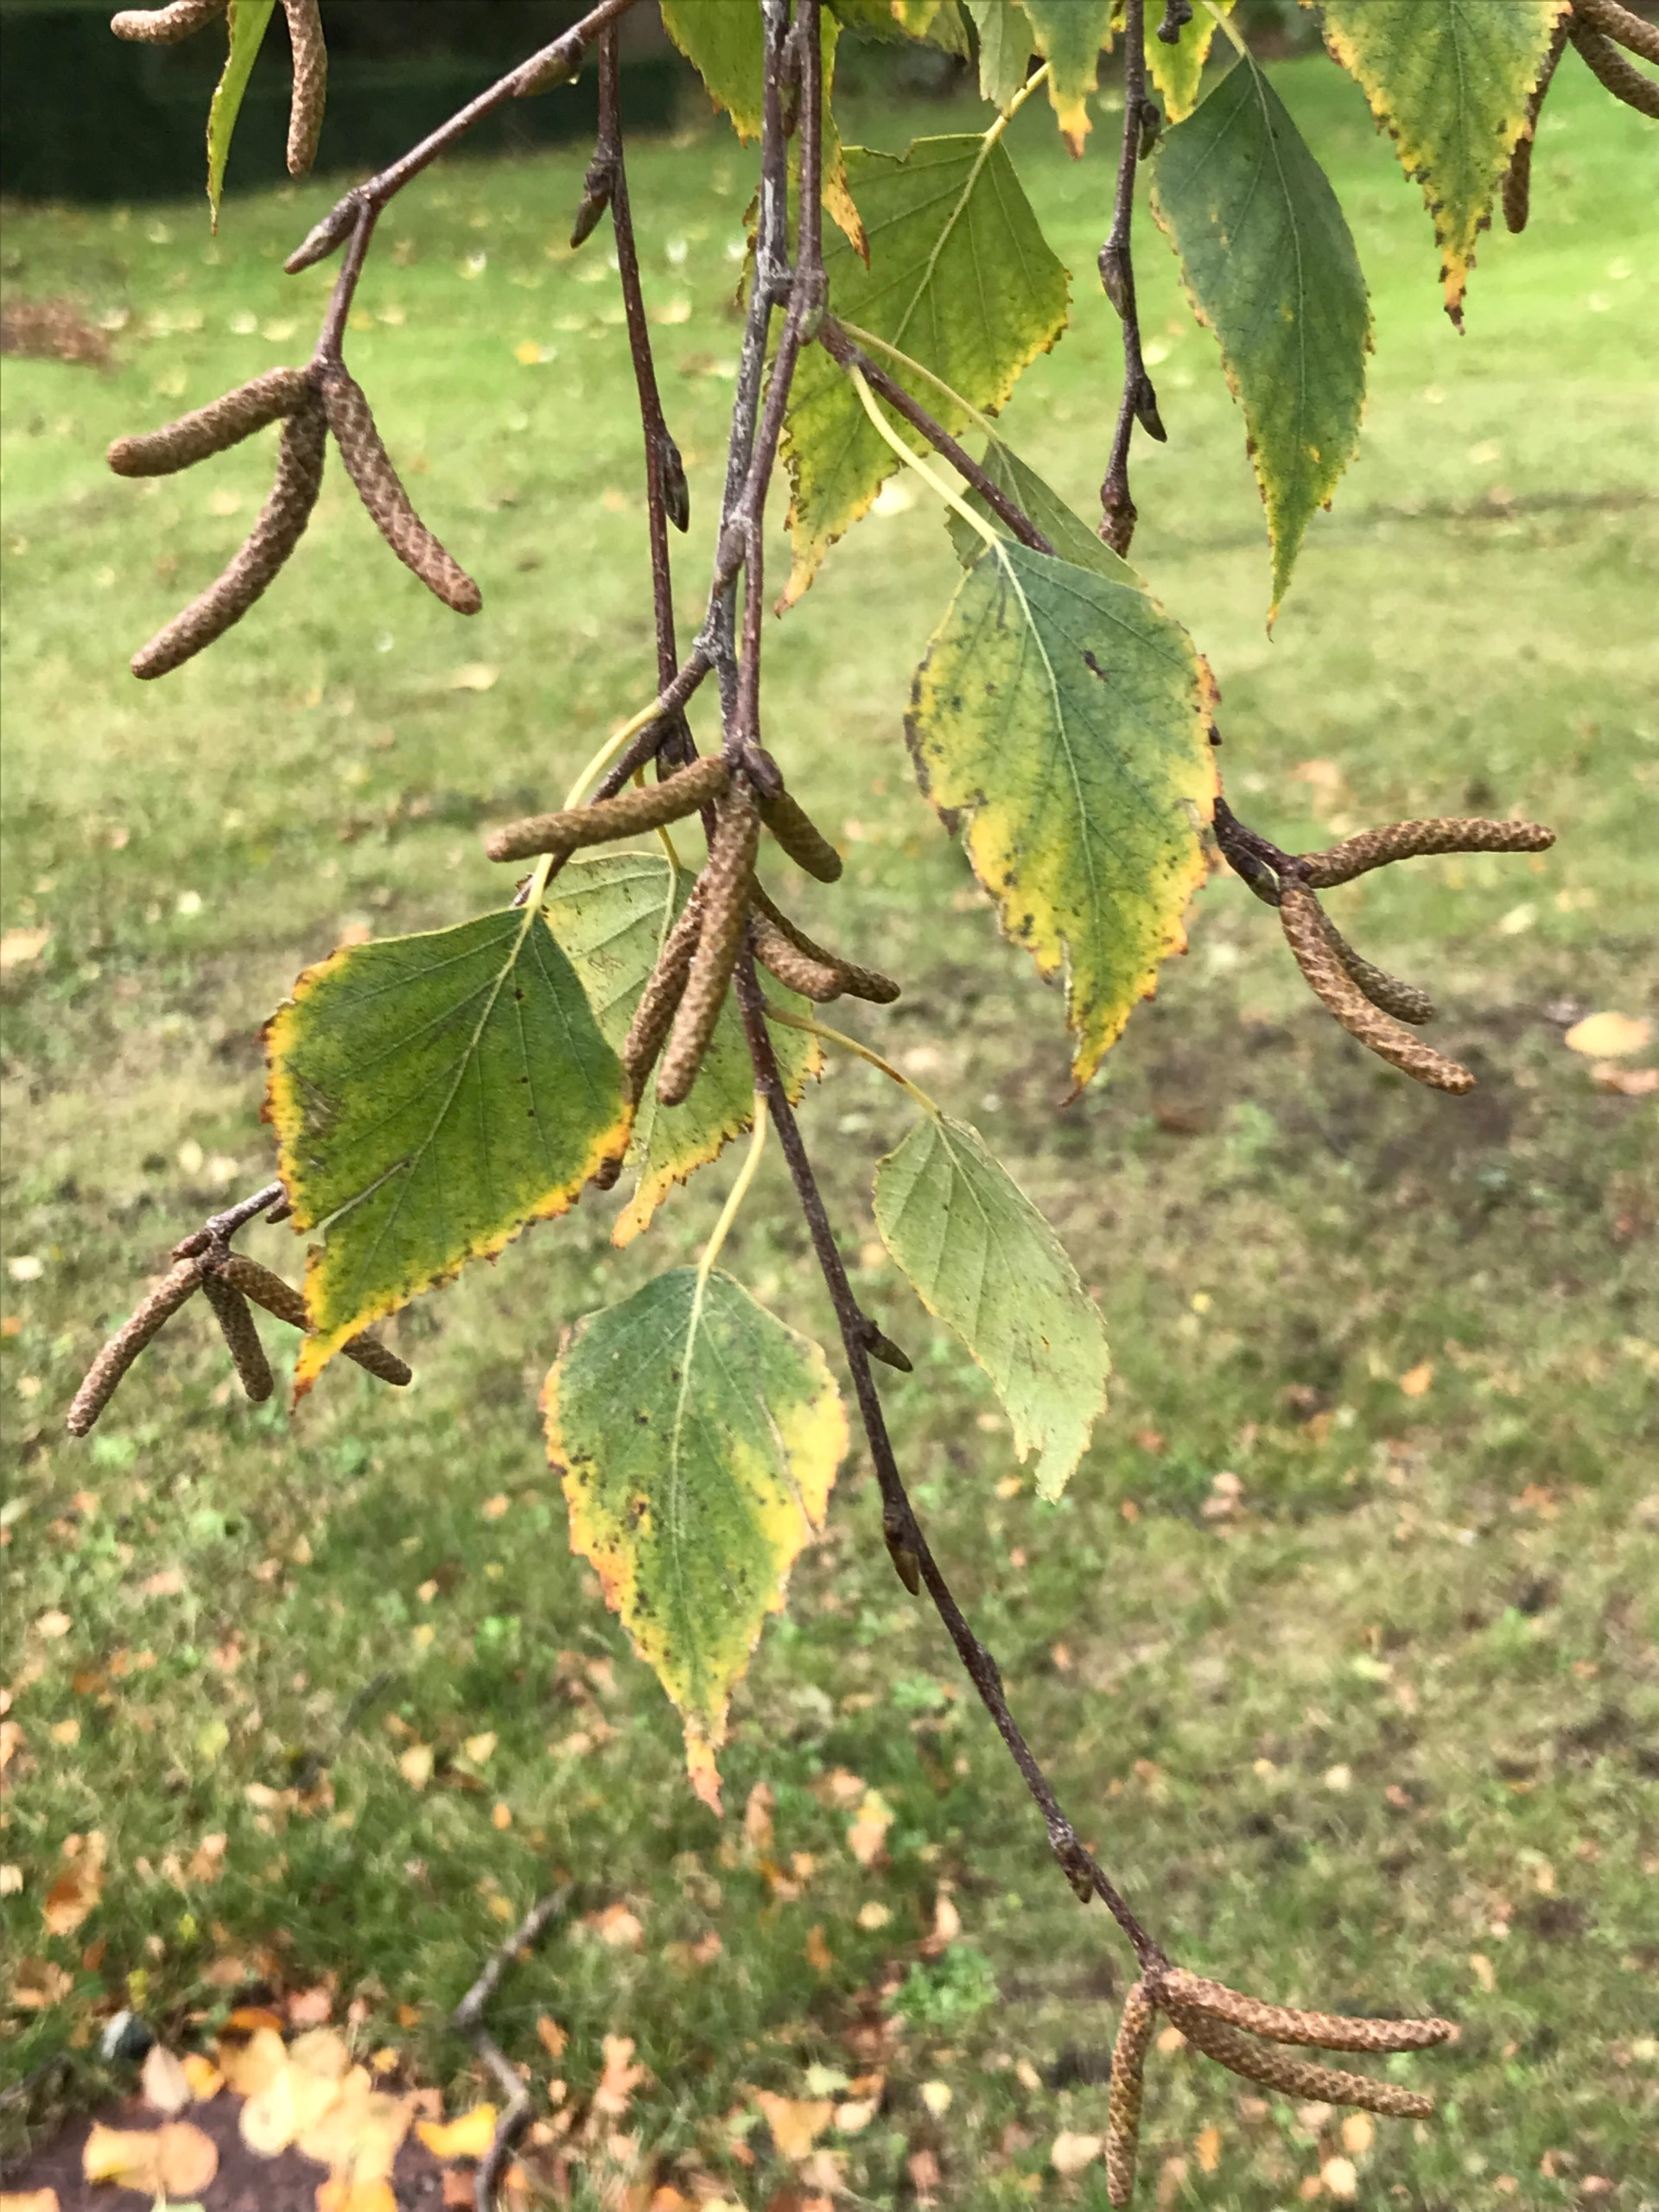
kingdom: Plantae
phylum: Tracheophyta
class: Magnoliopsida
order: Fagales
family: Betulaceae
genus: Betula
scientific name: Betula pendula
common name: Vorte-birk
